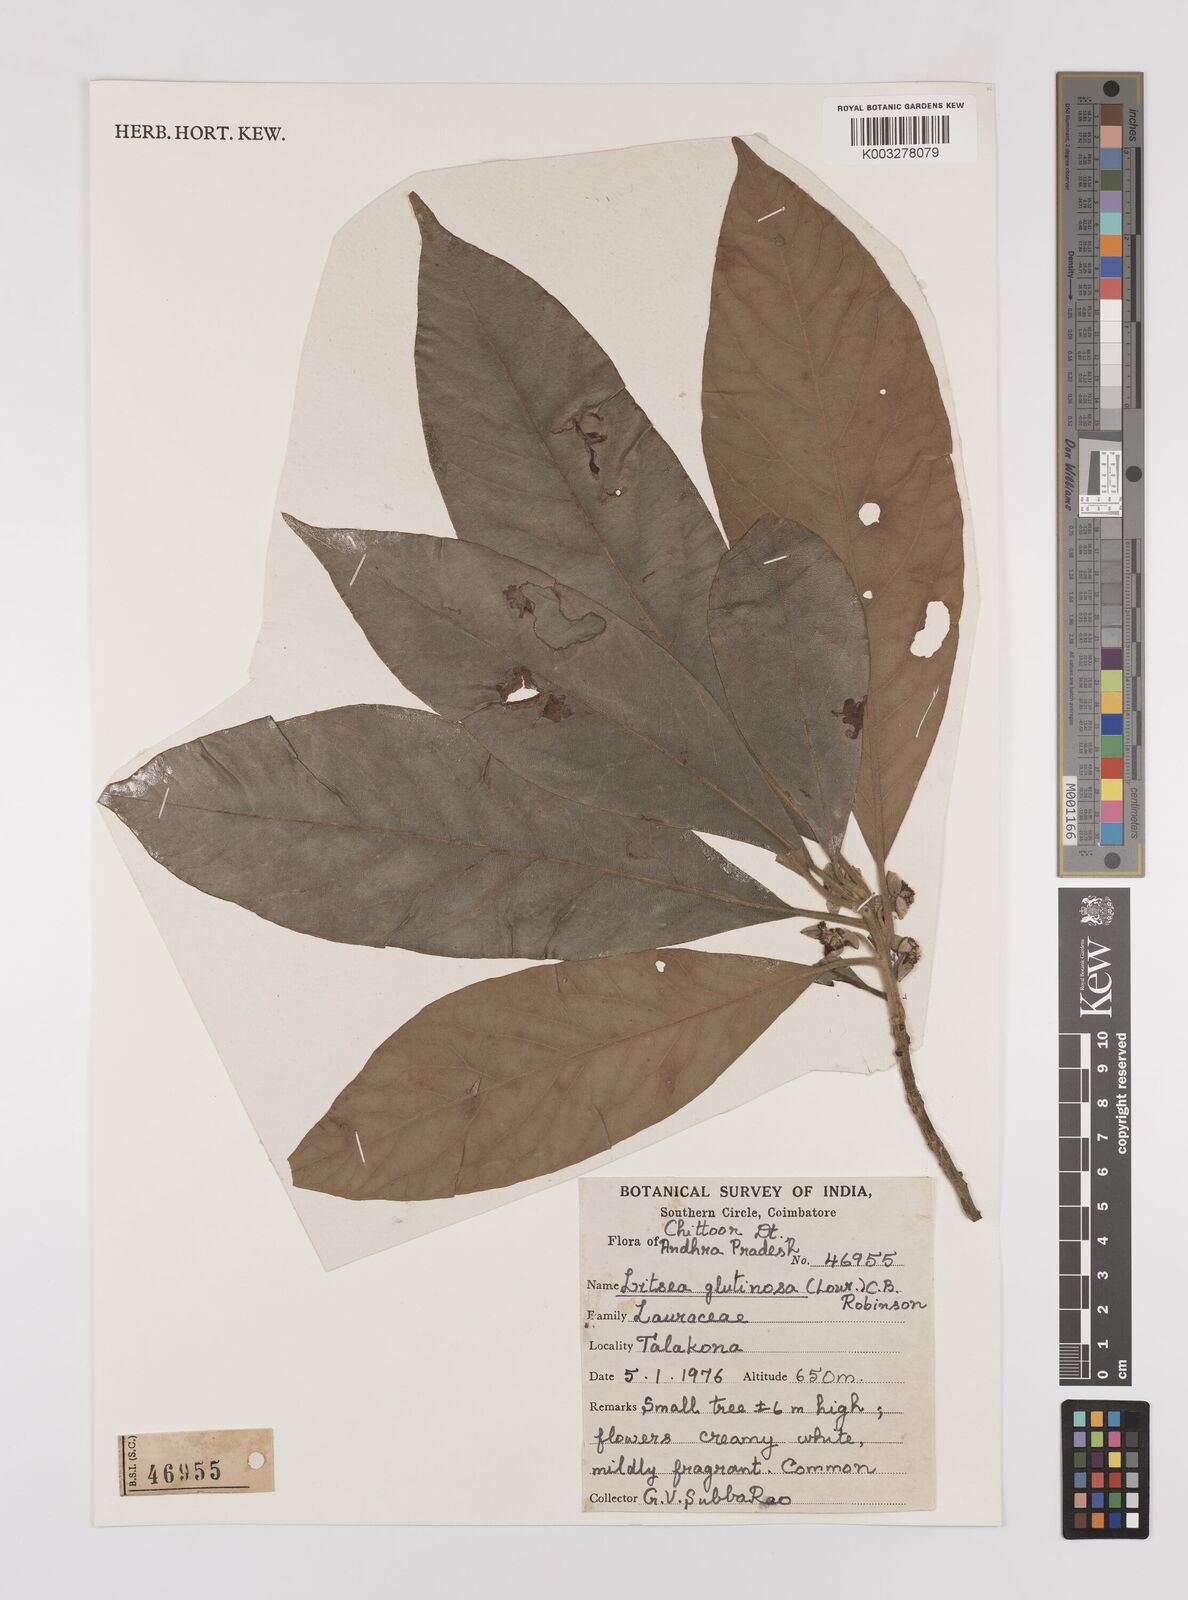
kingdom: Plantae
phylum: Tracheophyta
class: Magnoliopsida
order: Laurales
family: Lauraceae
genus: Litsea
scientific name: Litsea glutinosa
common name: Indian-laurel
